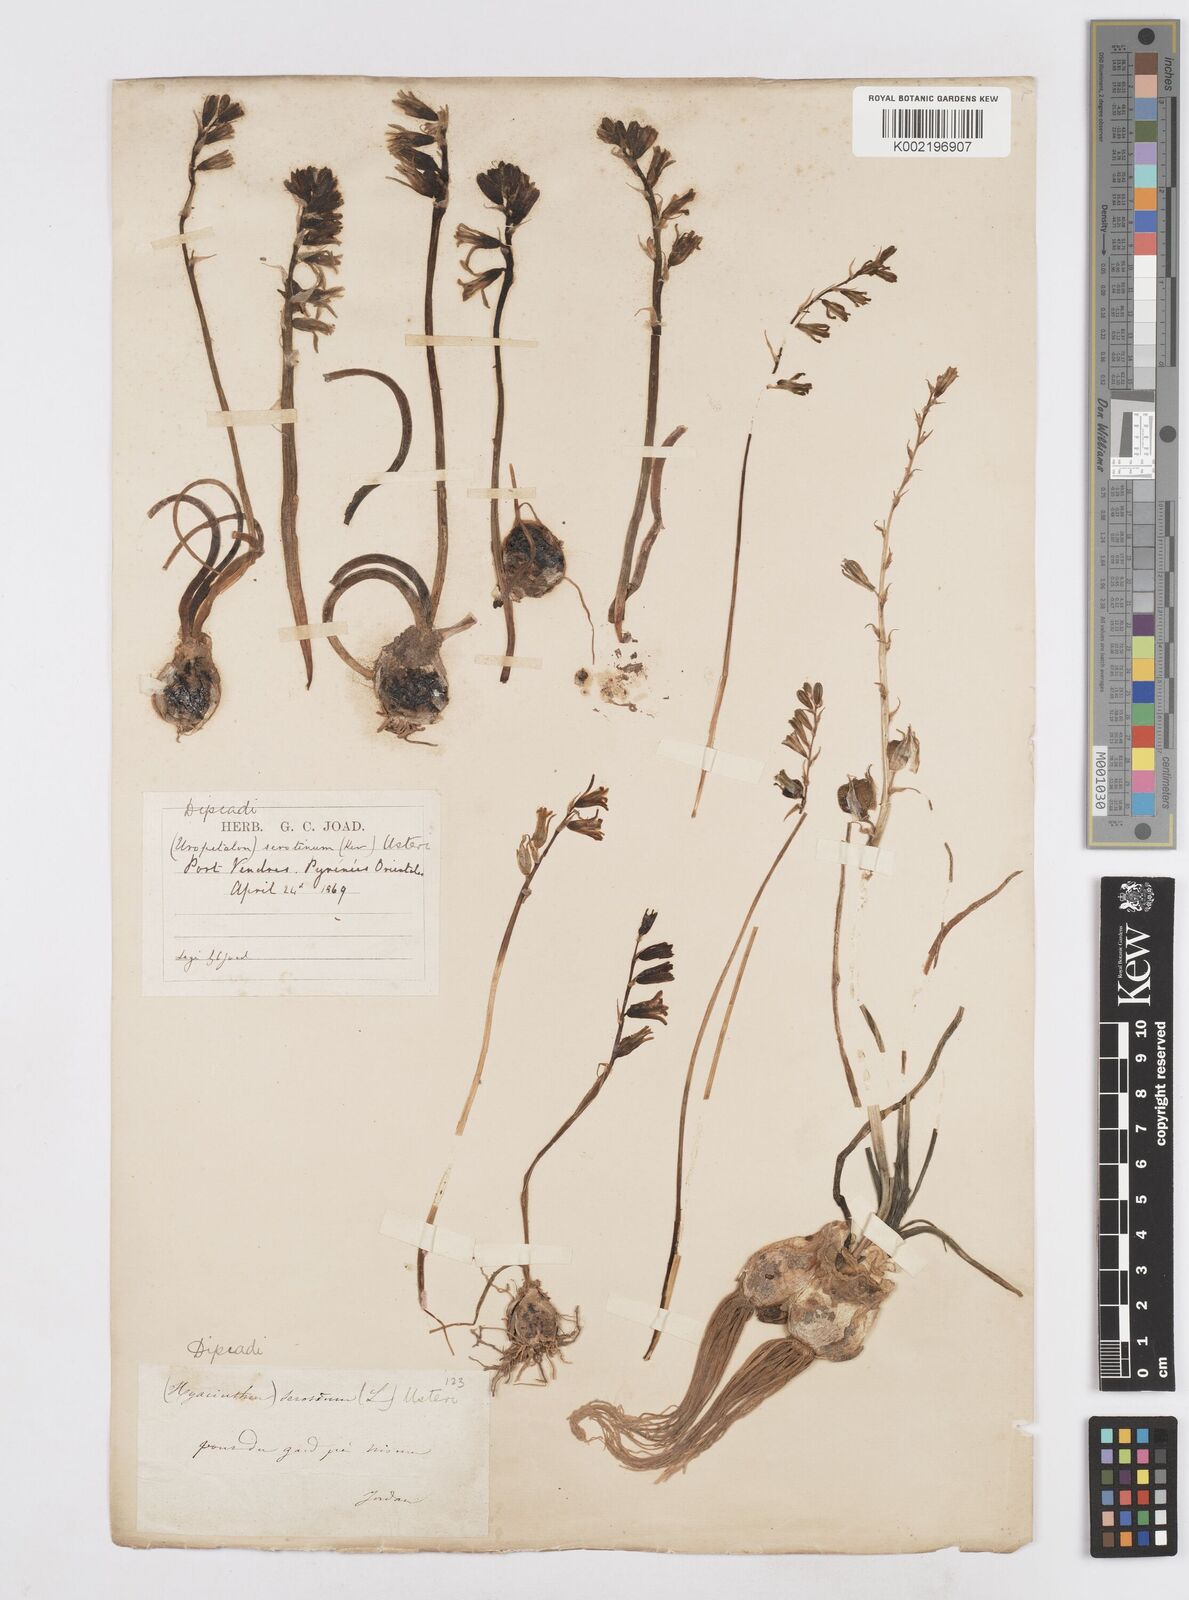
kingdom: Plantae
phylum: Tracheophyta
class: Liliopsida
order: Asparagales
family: Asparagaceae
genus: Dipcadi
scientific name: Dipcadi serotinum
